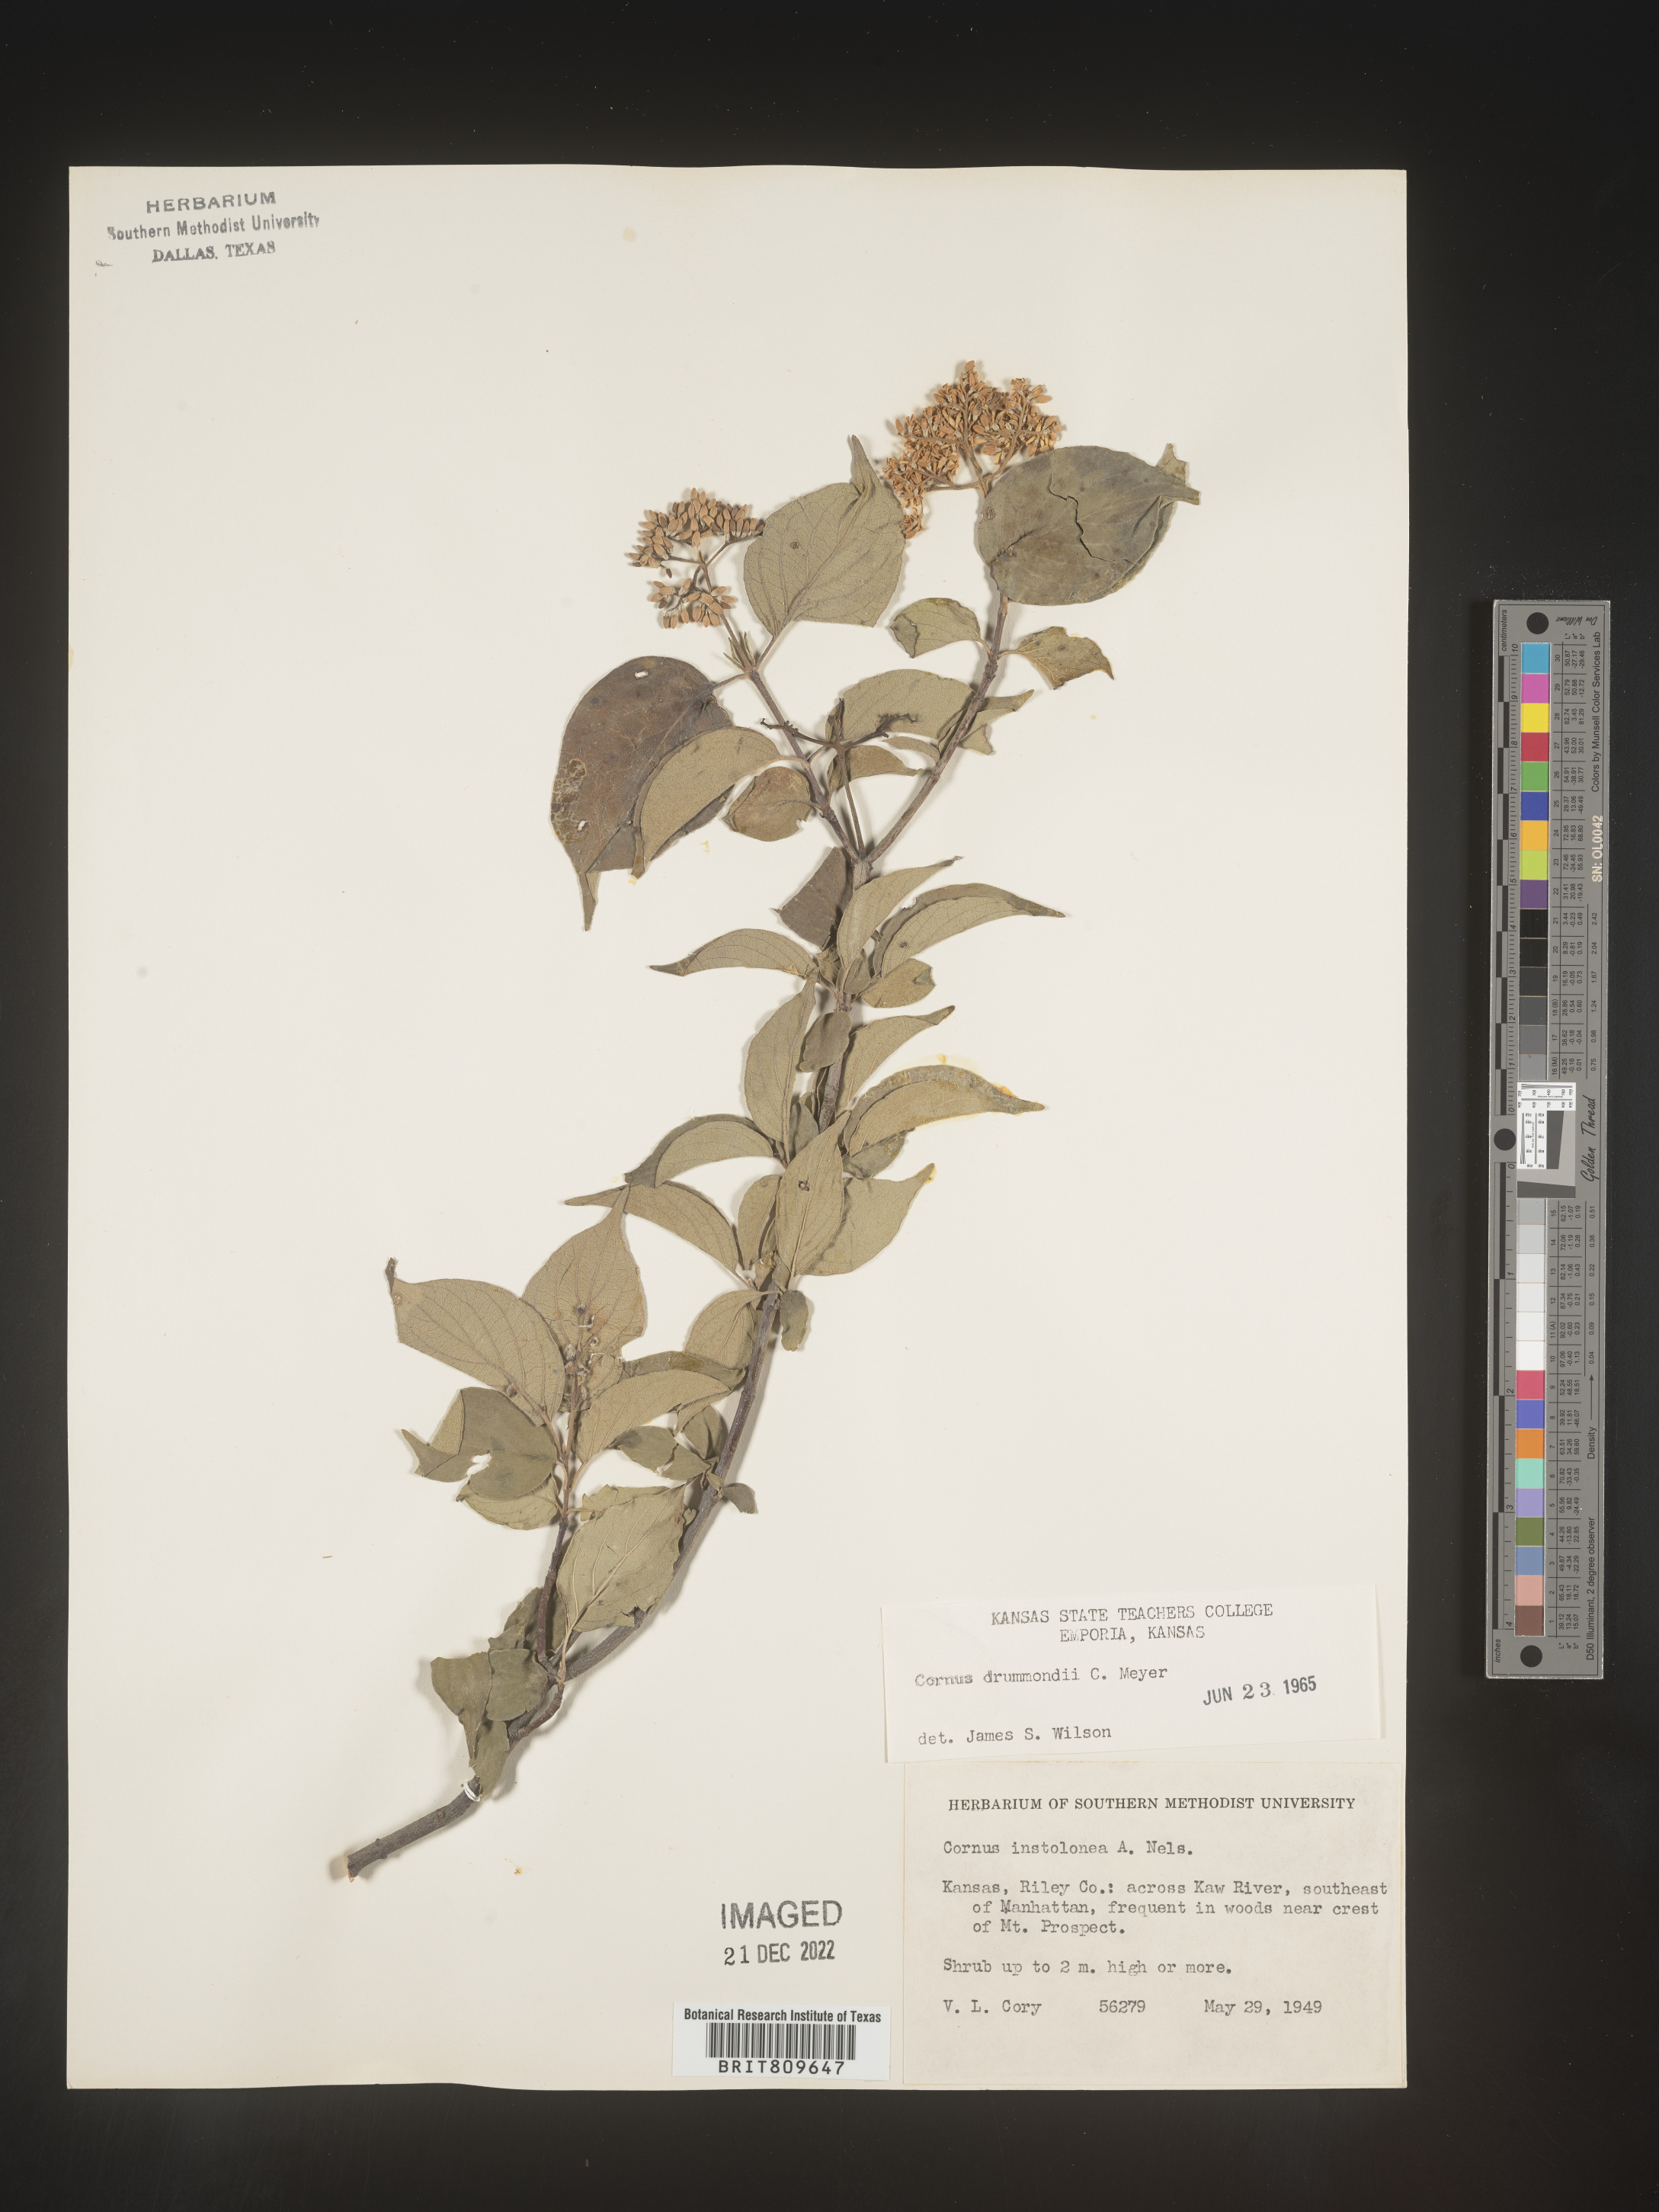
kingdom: Plantae
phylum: Tracheophyta
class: Magnoliopsida
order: Cornales
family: Cornaceae
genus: Cornus
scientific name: Cornus drummondii
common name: Rough-leaf dogwood
